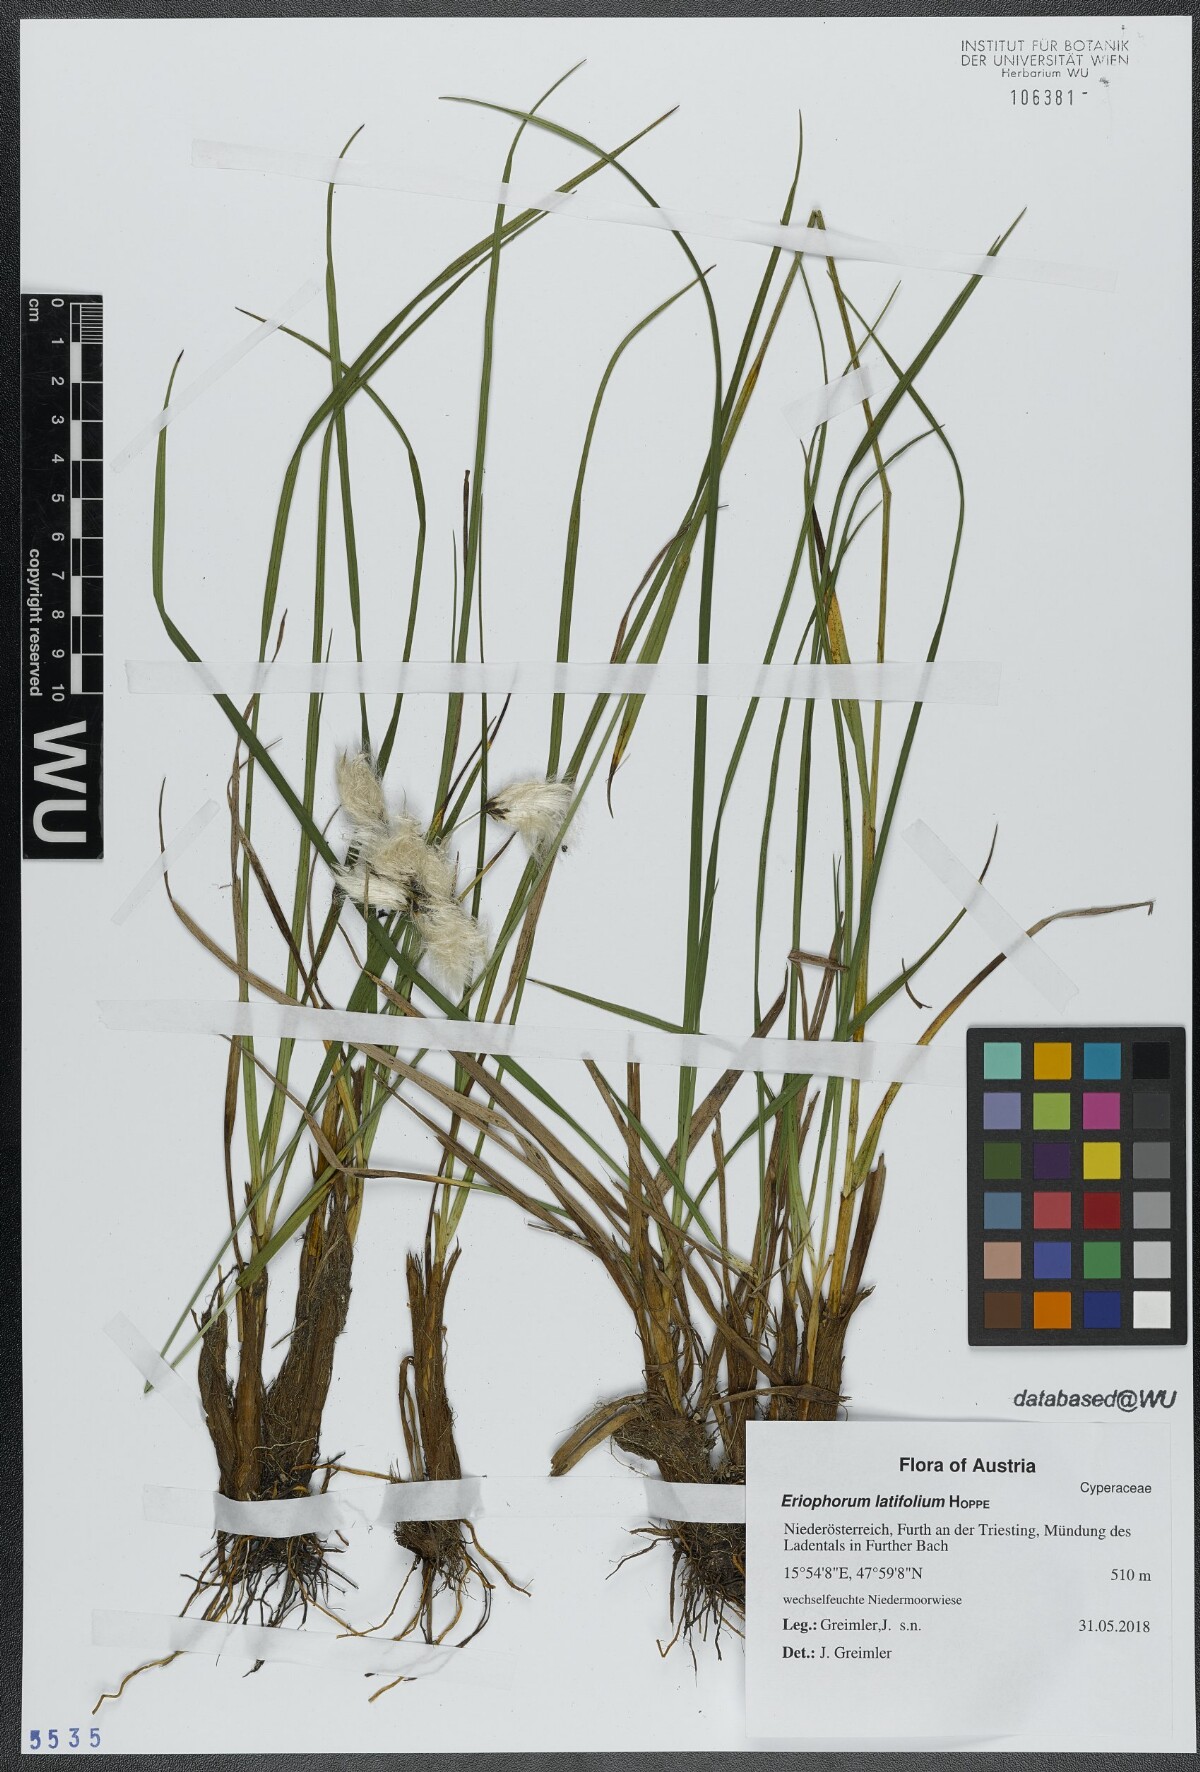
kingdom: Plantae
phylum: Tracheophyta
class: Liliopsida
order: Poales
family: Cyperaceae
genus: Eriophorum
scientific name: Eriophorum latifolium
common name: Broad-leaved cottongrass
